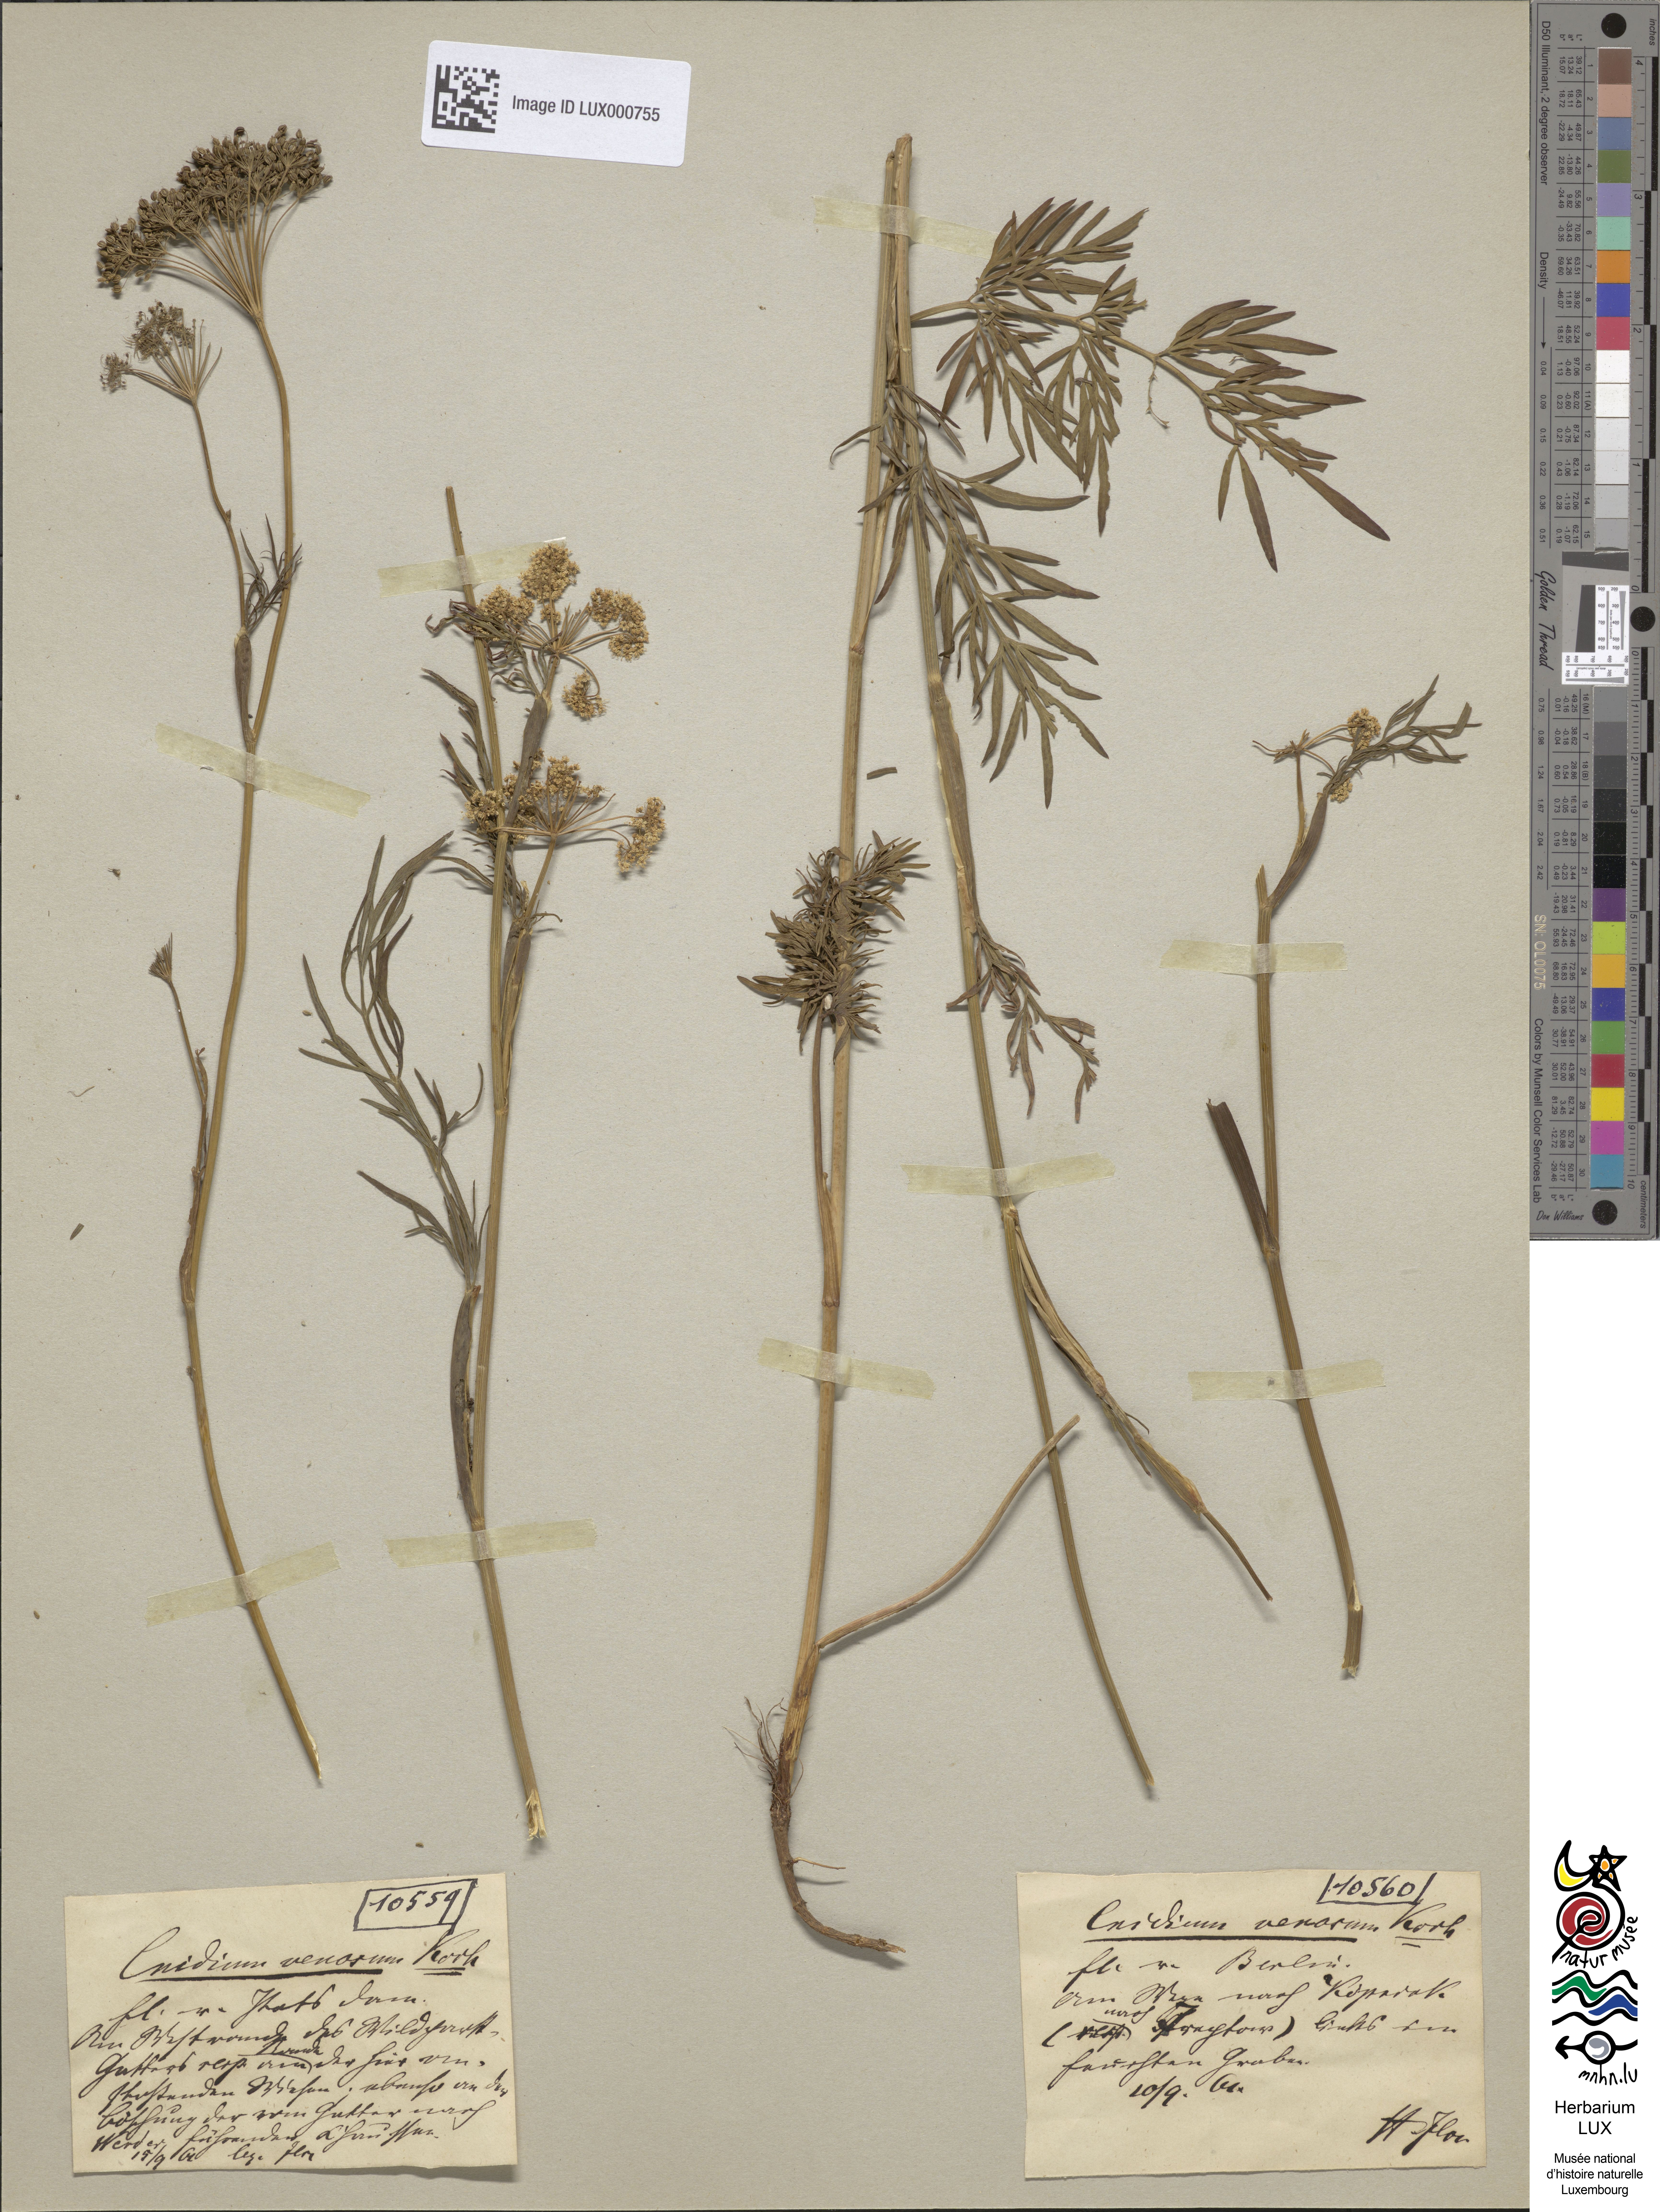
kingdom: Plantae
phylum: Tracheophyta
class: Magnoliopsida
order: Apiales
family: Apiaceae
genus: Kadenia
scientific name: Kadenia dubia
